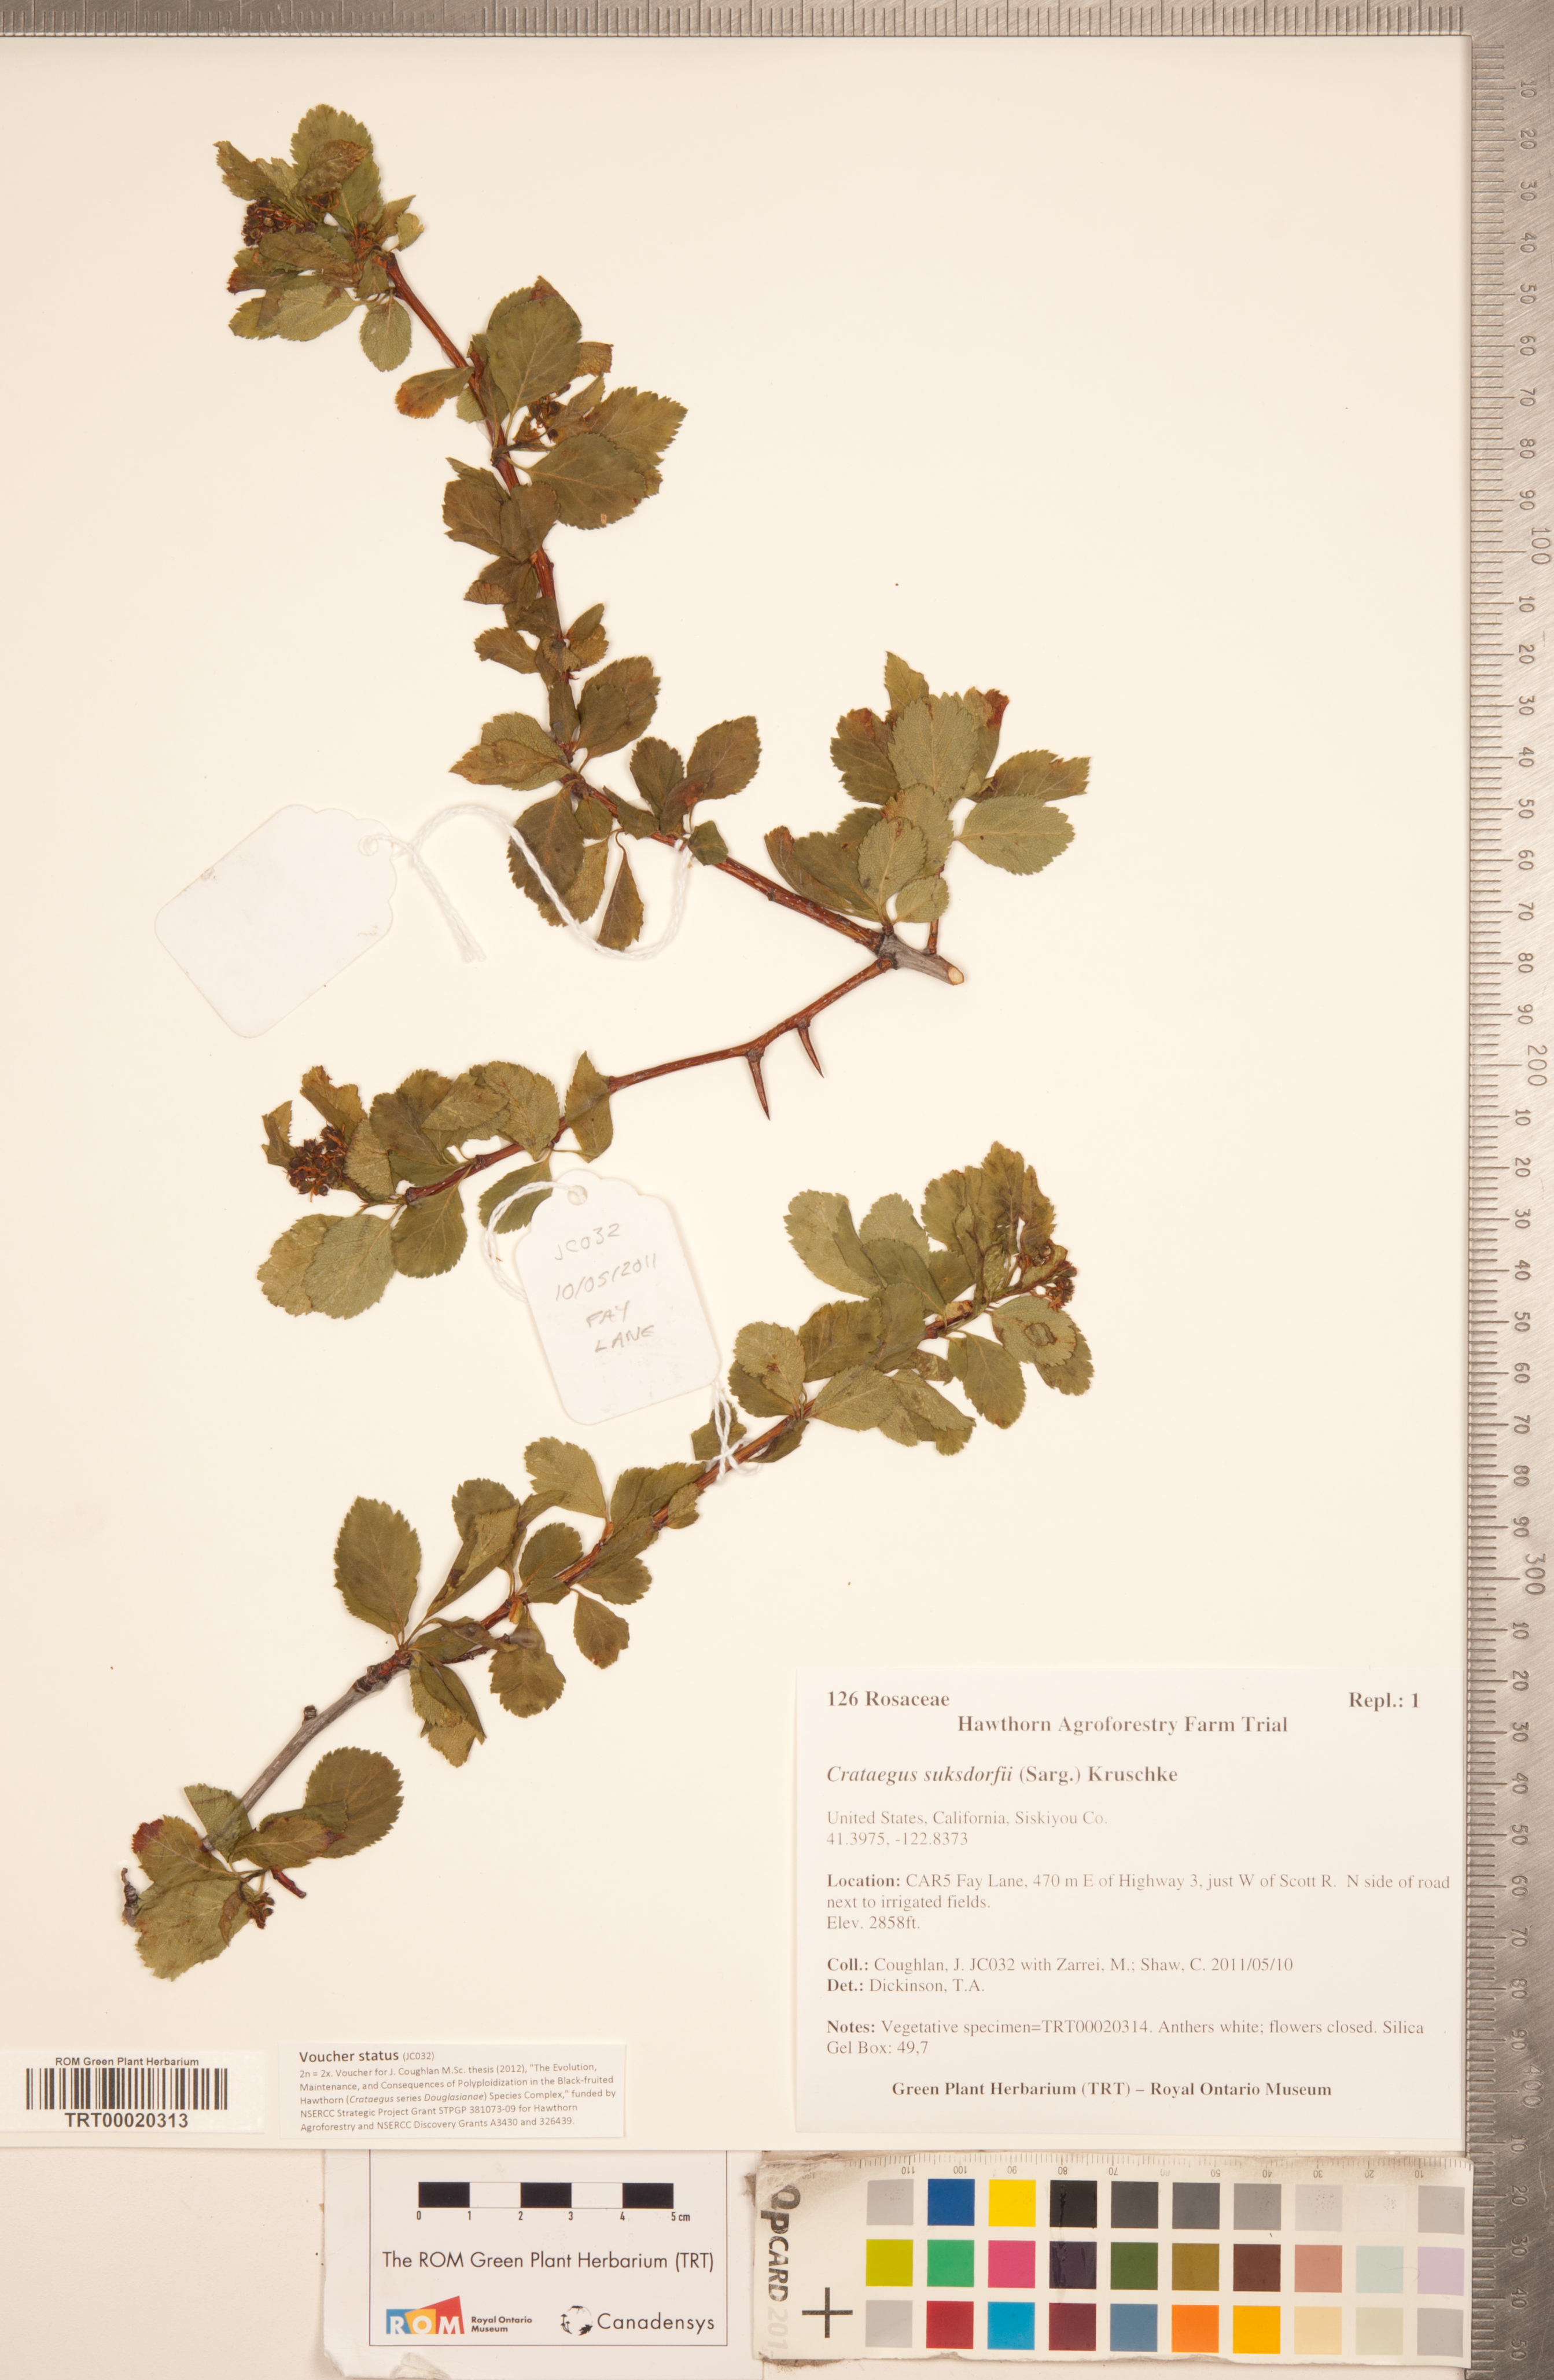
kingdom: Plantae
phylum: Tracheophyta
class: Magnoliopsida
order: Rosales
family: Rosaceae
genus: Crataegus
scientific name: Crataegus gaylussacia
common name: Huckleberry hawthorn
